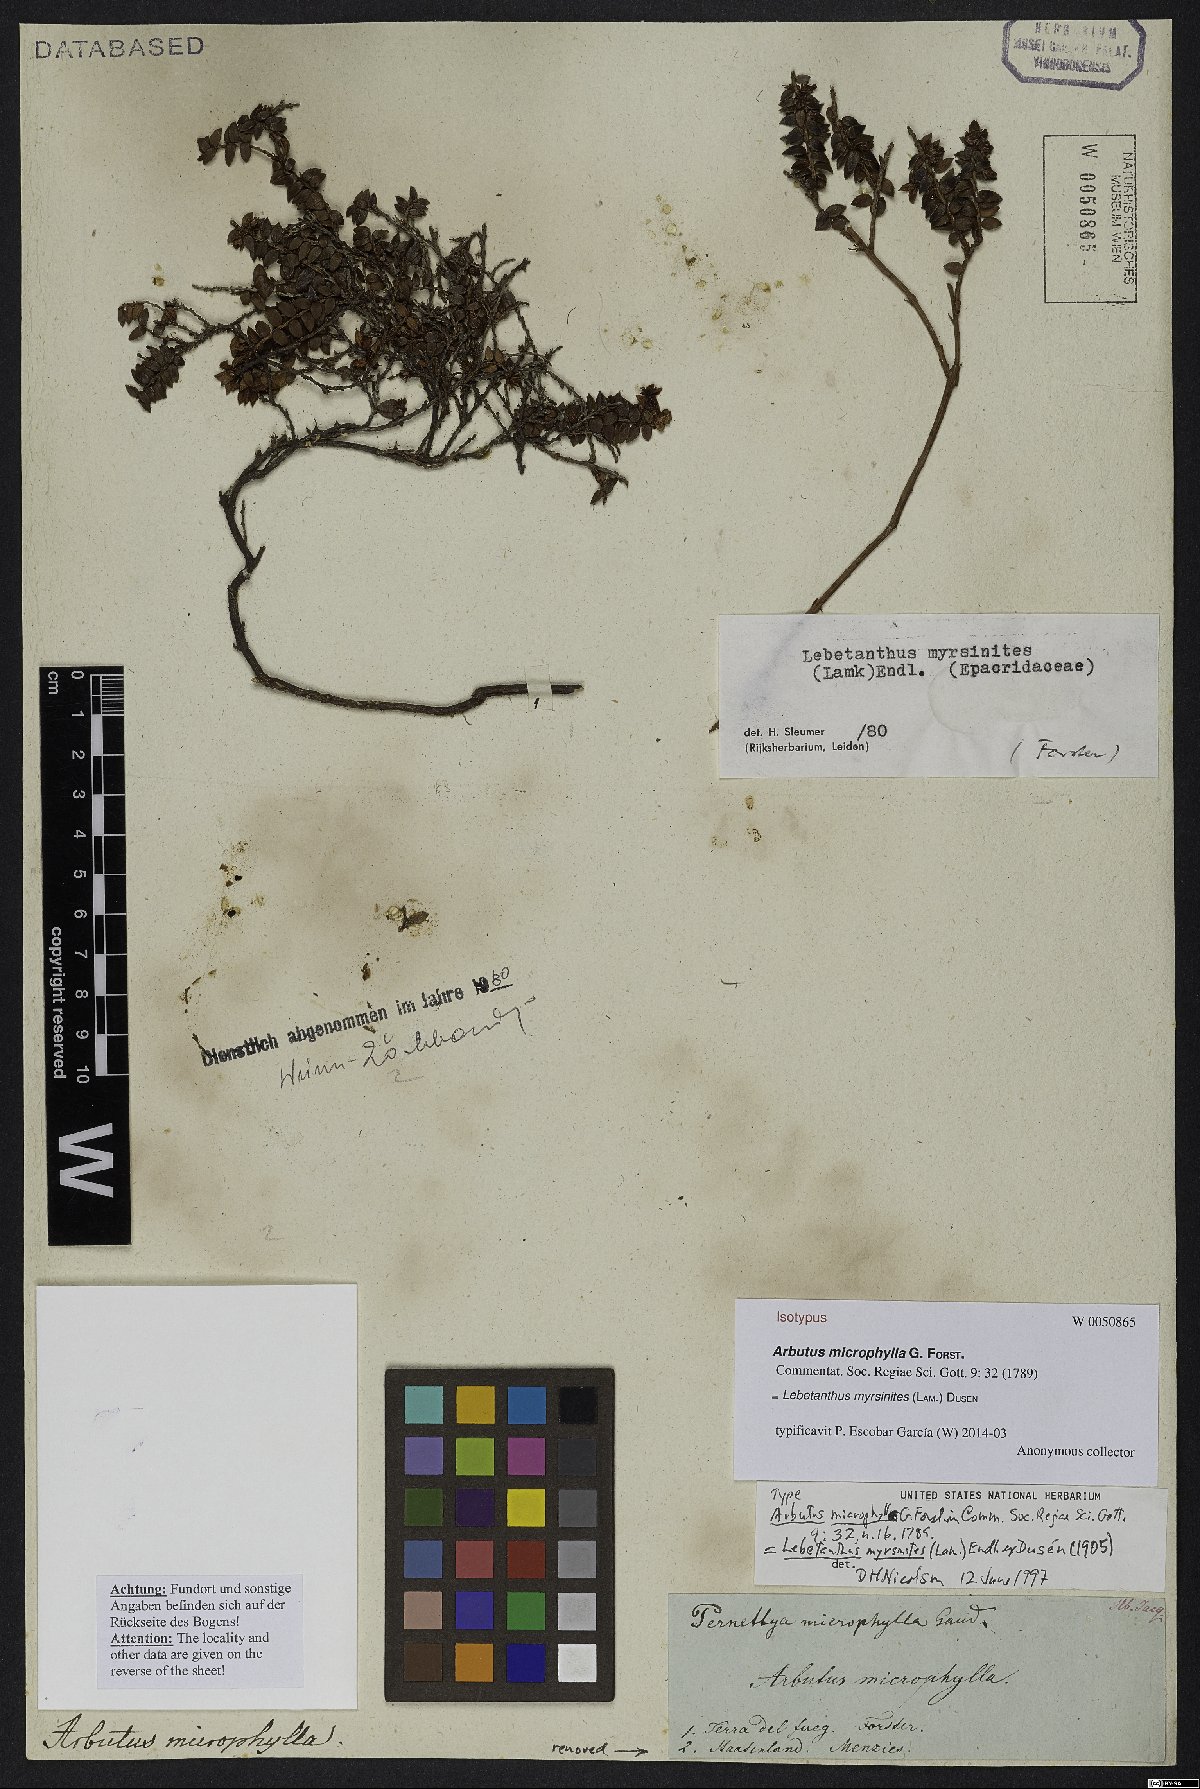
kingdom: Plantae
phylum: Tracheophyta
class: Magnoliopsida
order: Ericales
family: Ericaceae
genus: Lebetanthus
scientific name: Lebetanthus myrsinites
